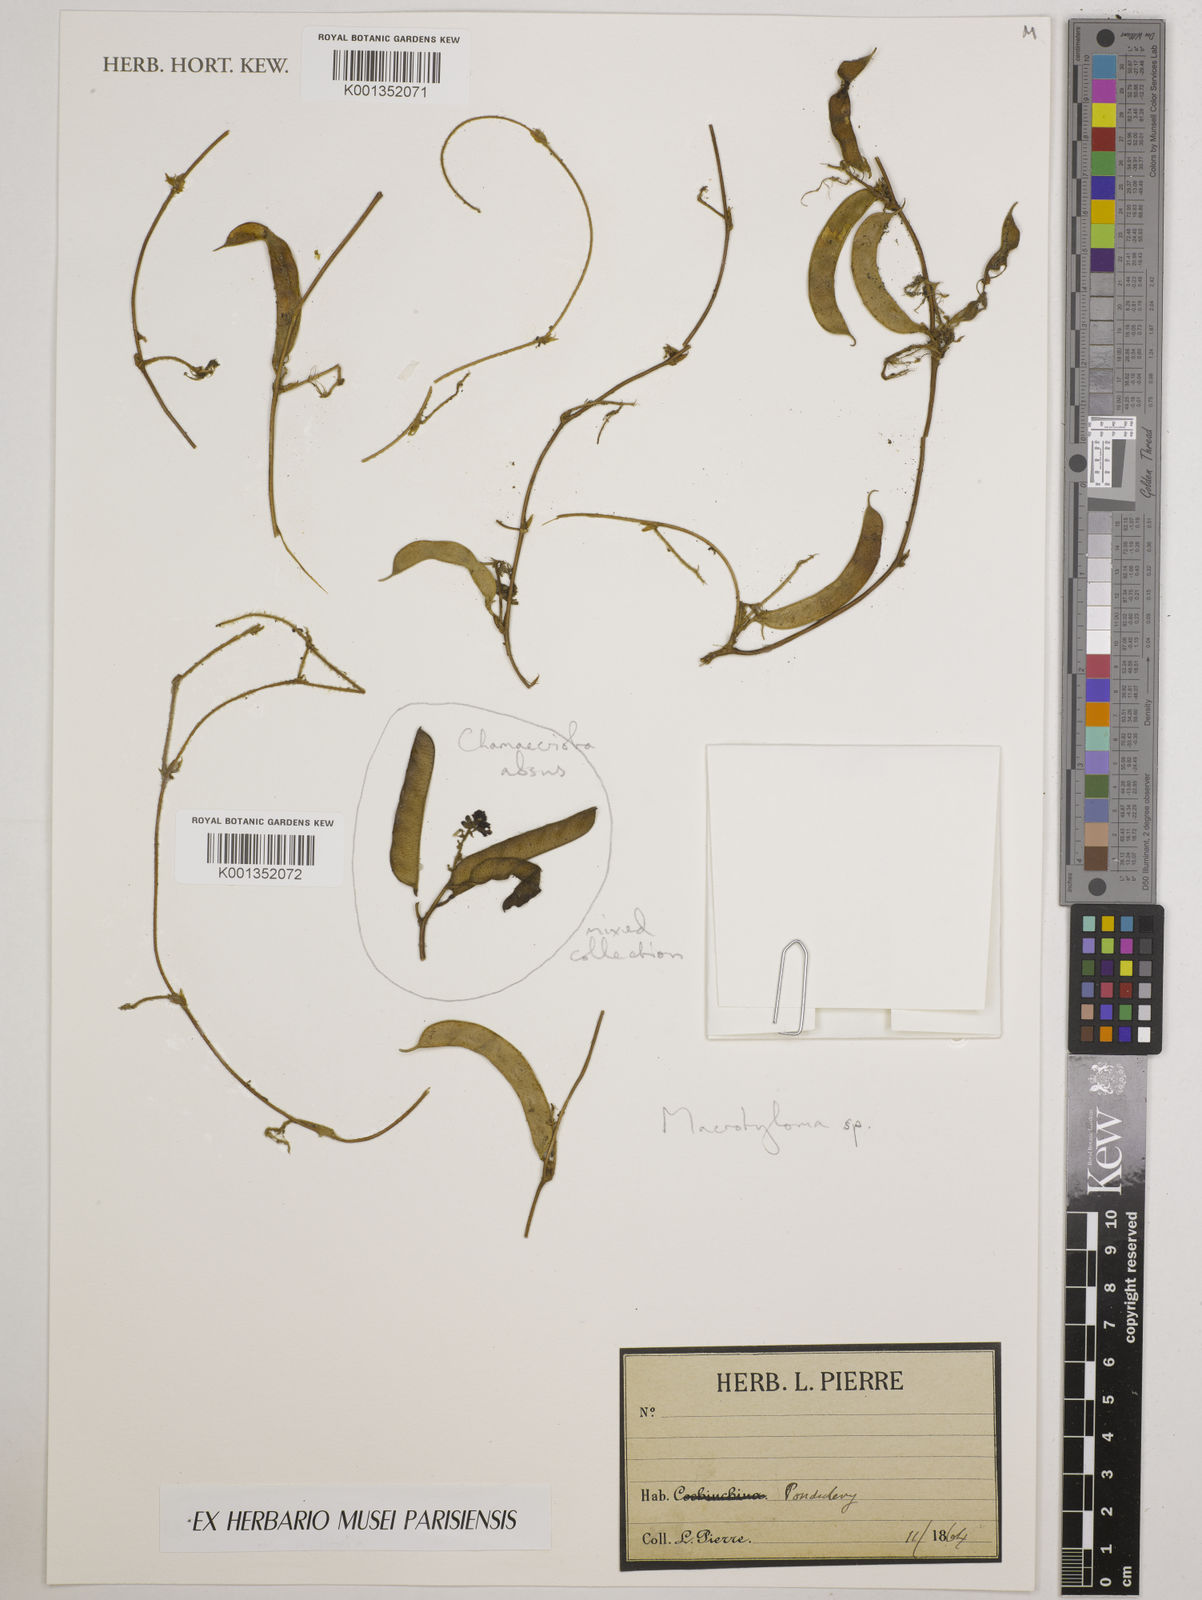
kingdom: Plantae
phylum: Tracheophyta
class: Magnoliopsida
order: Fabales
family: Fabaceae
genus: Macrotyloma
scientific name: Macrotyloma
